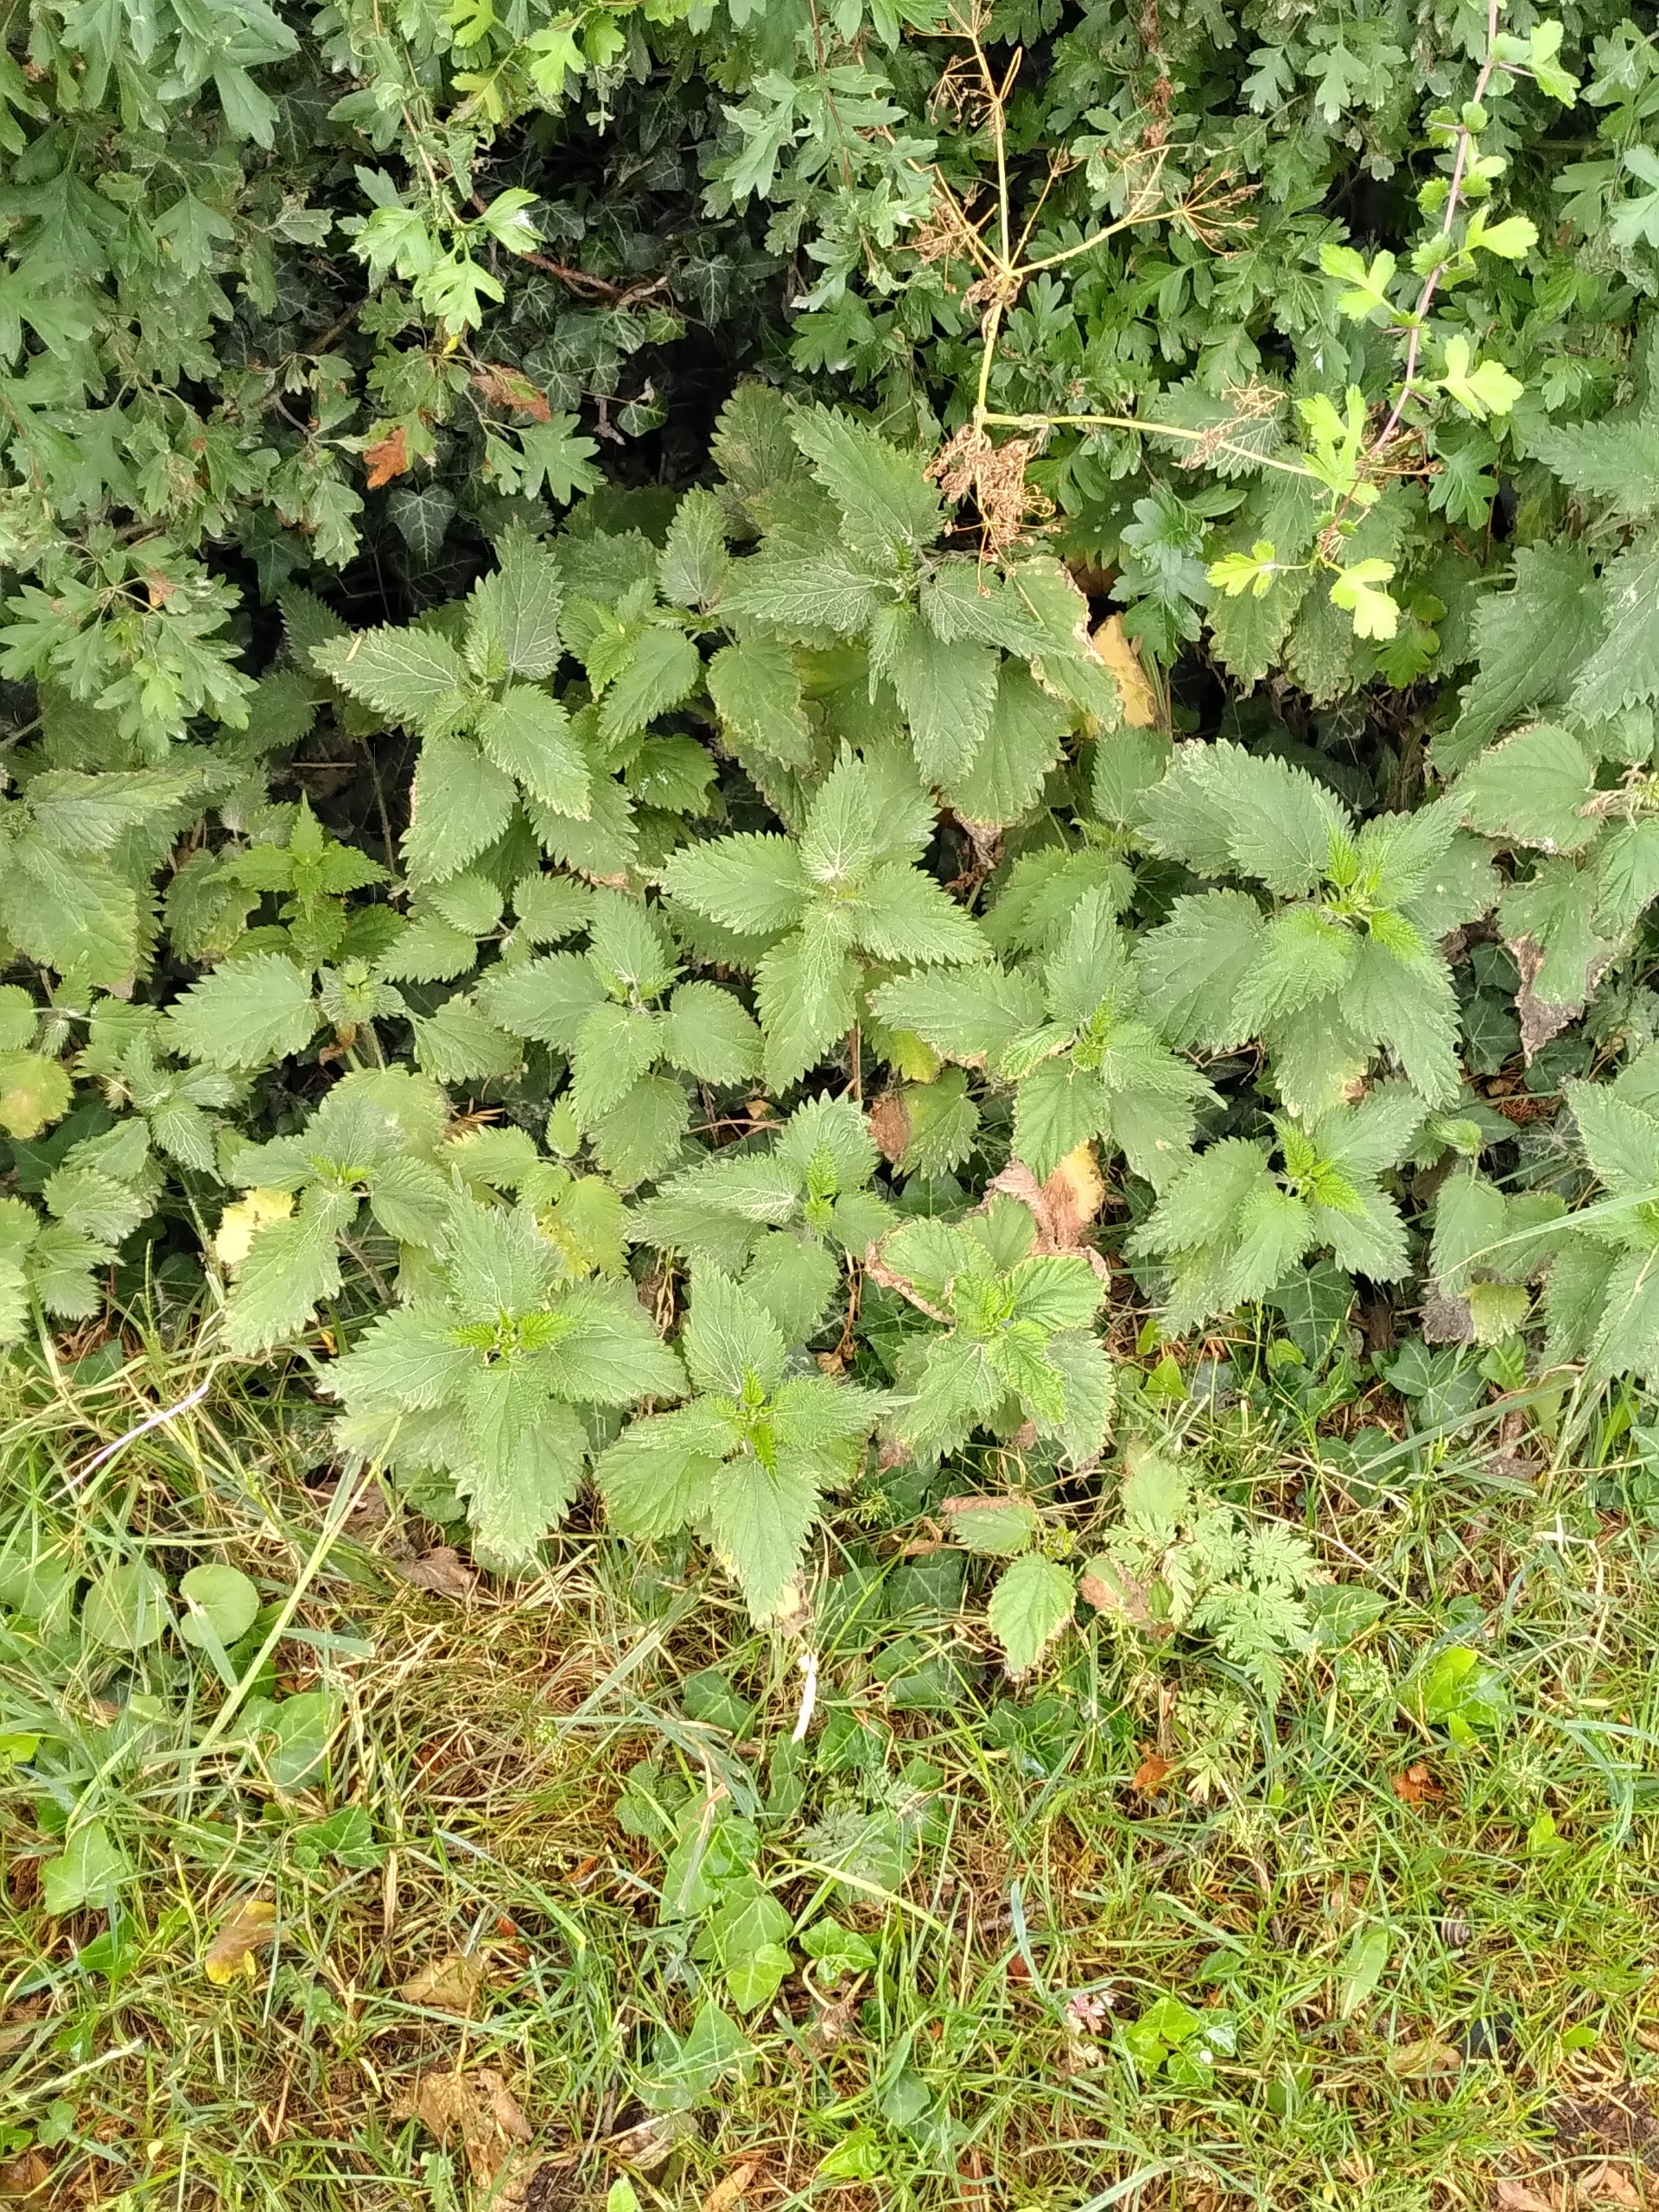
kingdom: Plantae
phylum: Tracheophyta
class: Magnoliopsida
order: Rosales
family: Urticaceae
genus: Urtica
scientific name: Urtica dioica
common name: Stor nælde
